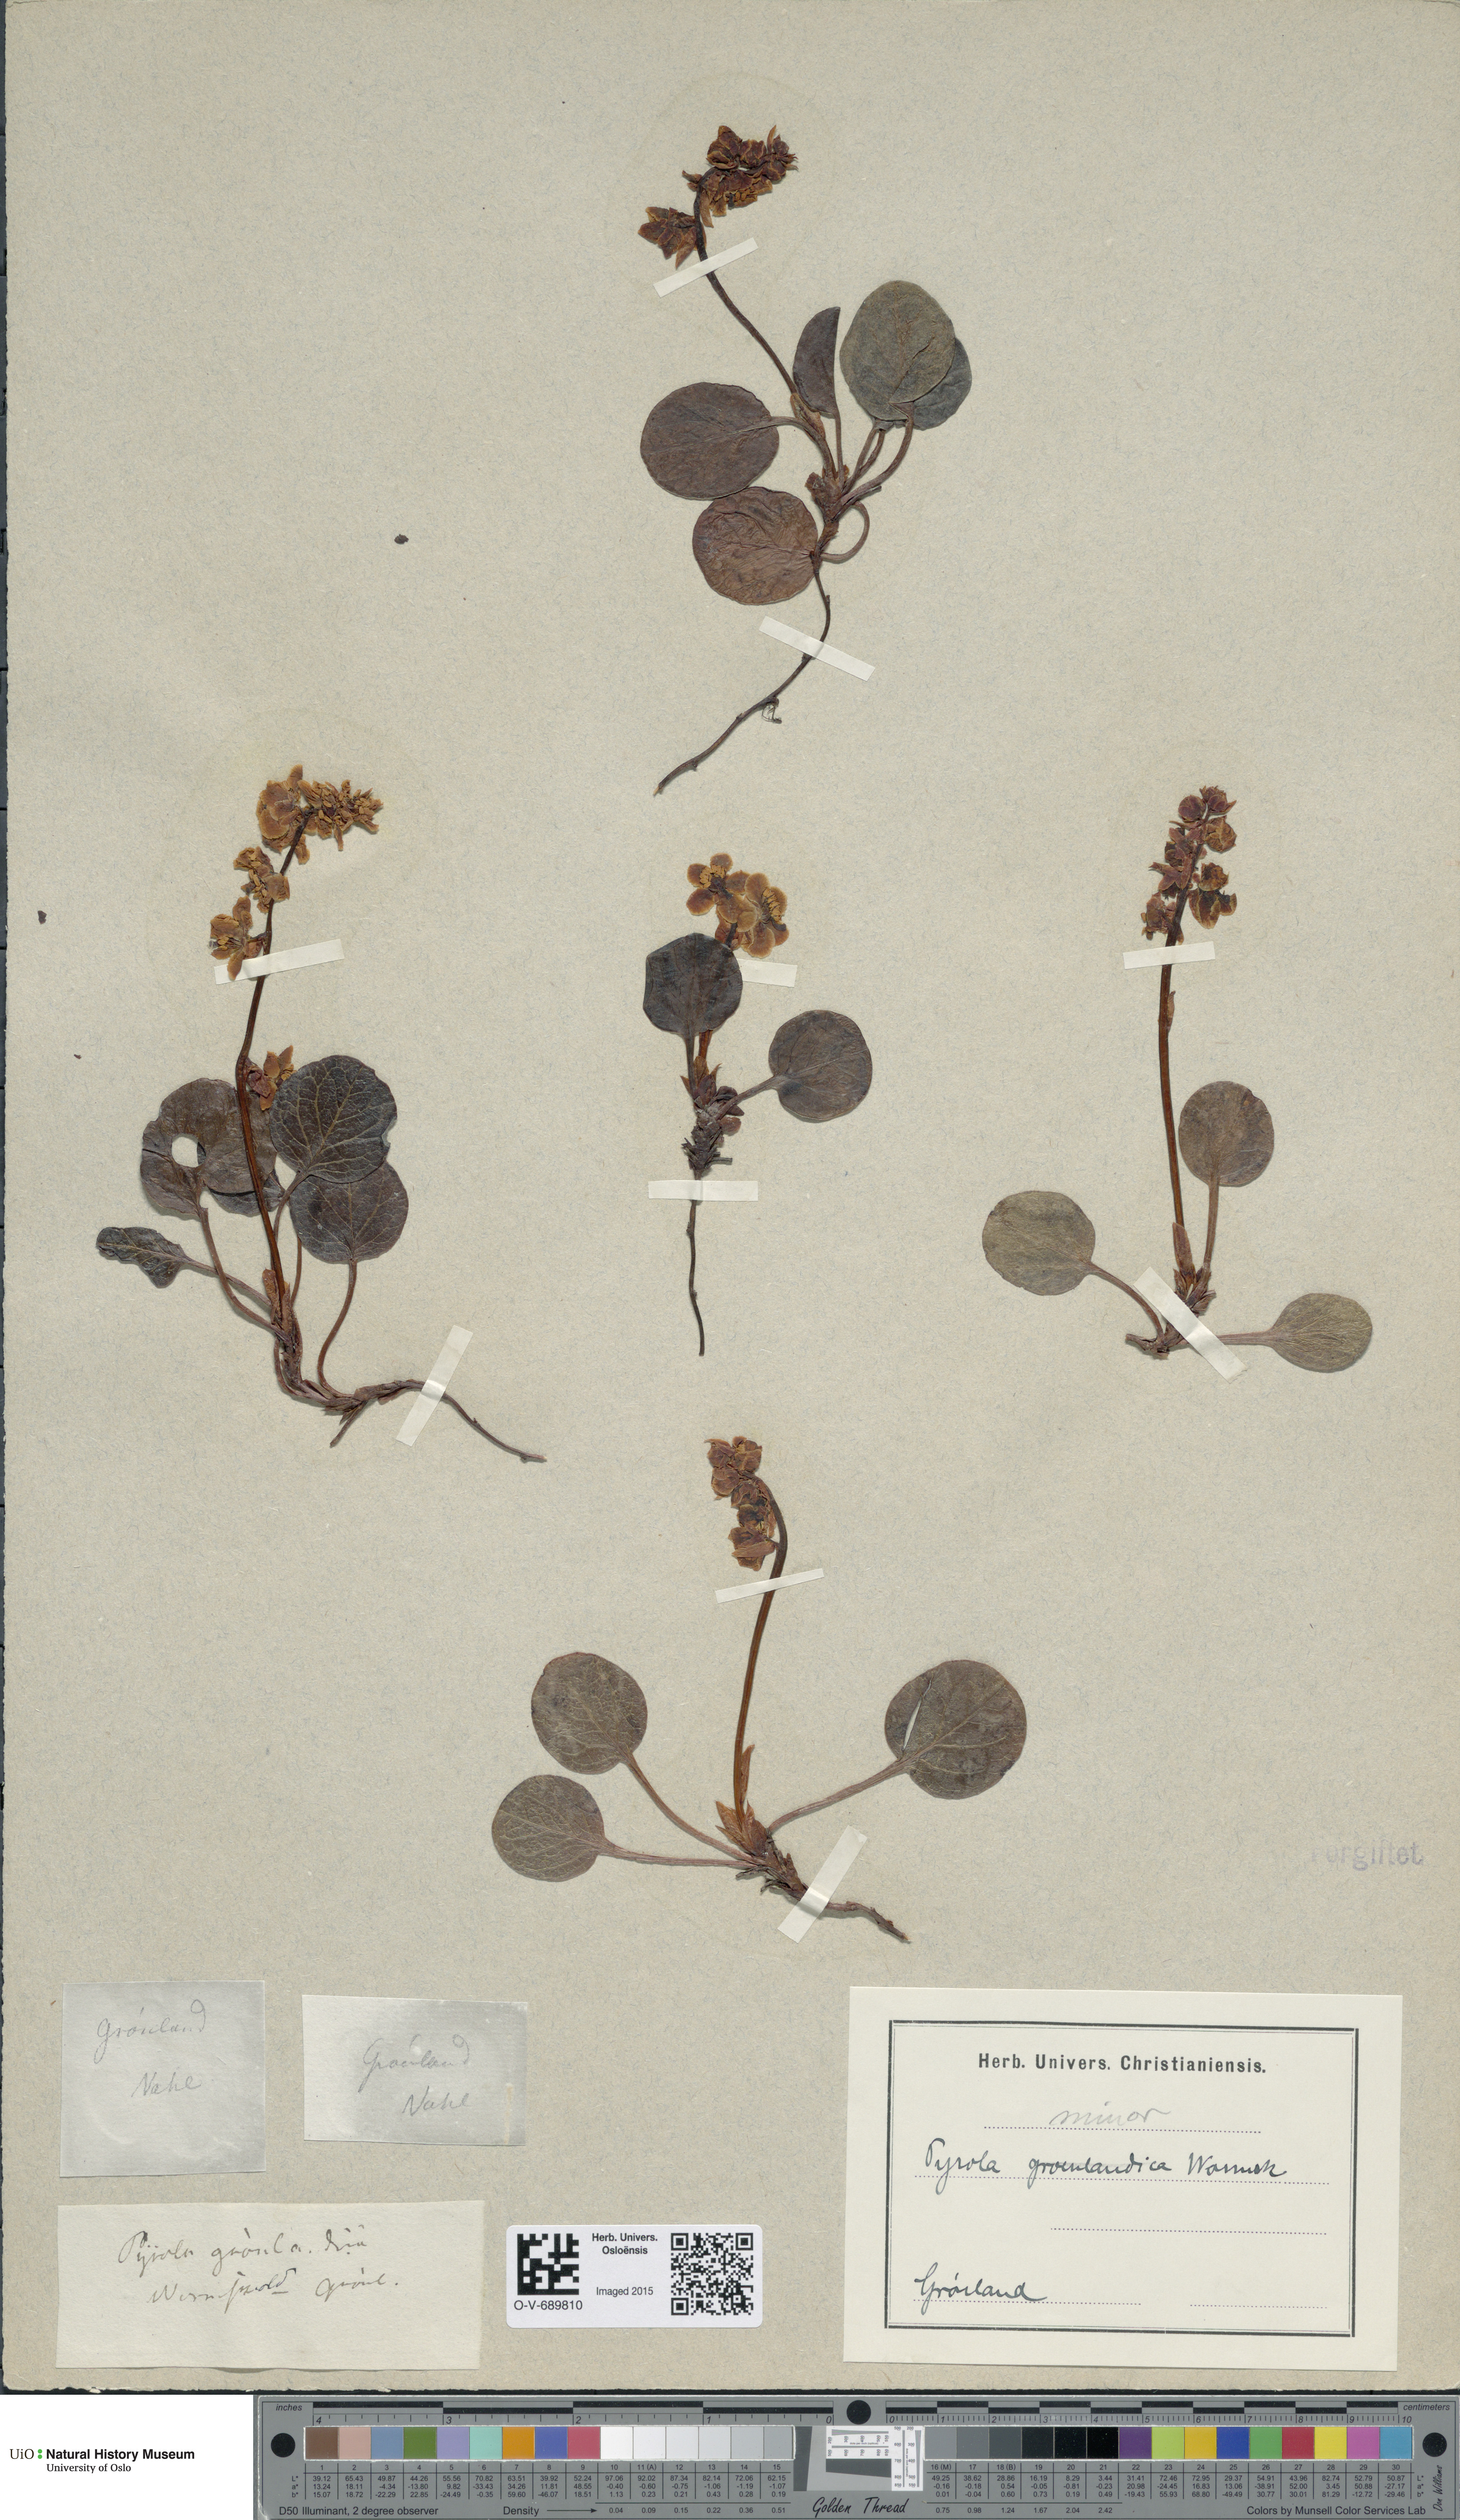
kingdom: Plantae
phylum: Tracheophyta
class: Magnoliopsida
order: Ericales
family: Ericaceae
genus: Pyrola
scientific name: Pyrola minor
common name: Common wintergreen
